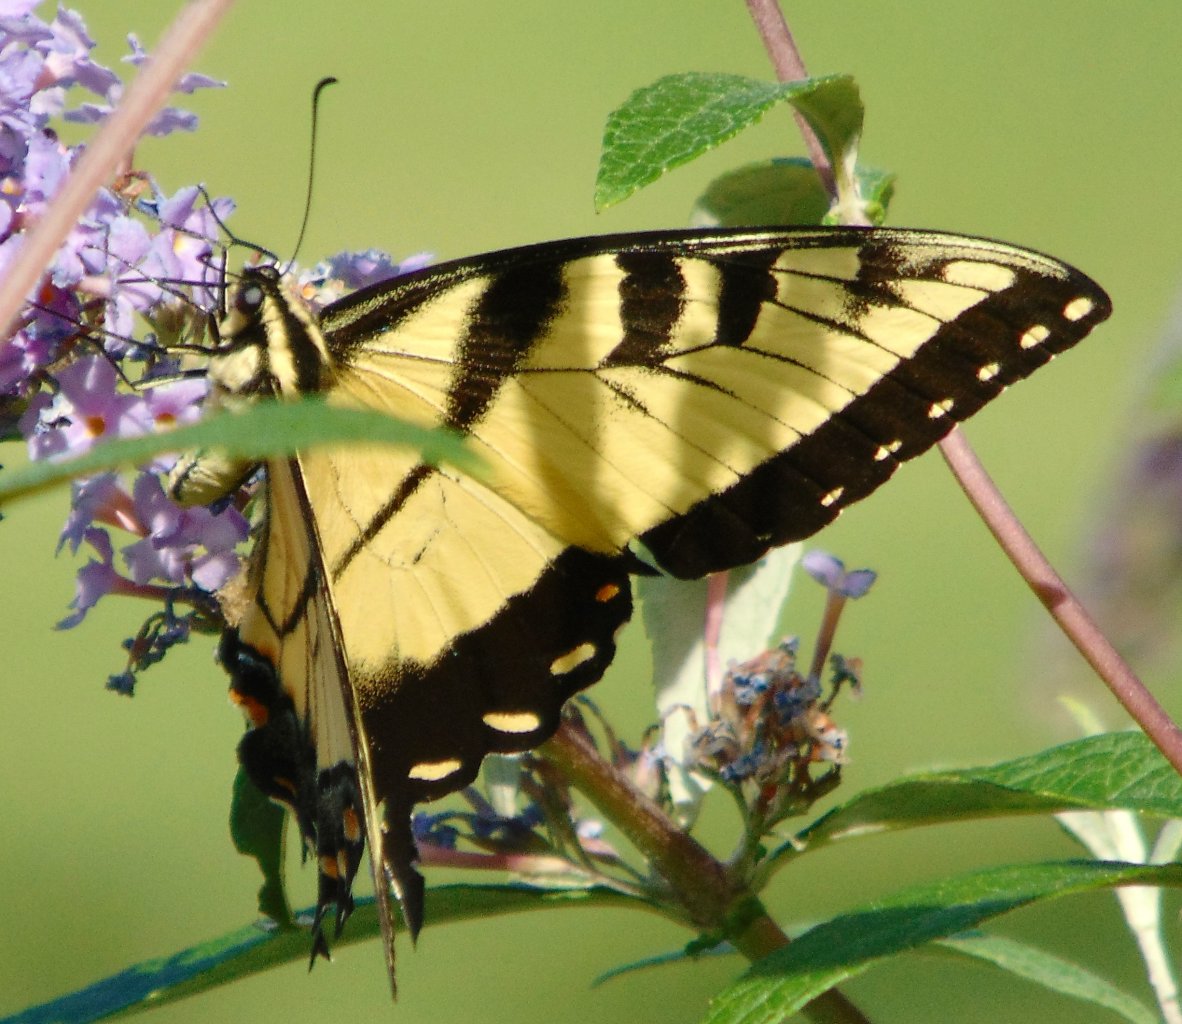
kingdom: Animalia
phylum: Arthropoda
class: Insecta
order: Lepidoptera
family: Papilionidae
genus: Pterourus
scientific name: Pterourus glaucus
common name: Eastern Tiger Swallowtail
